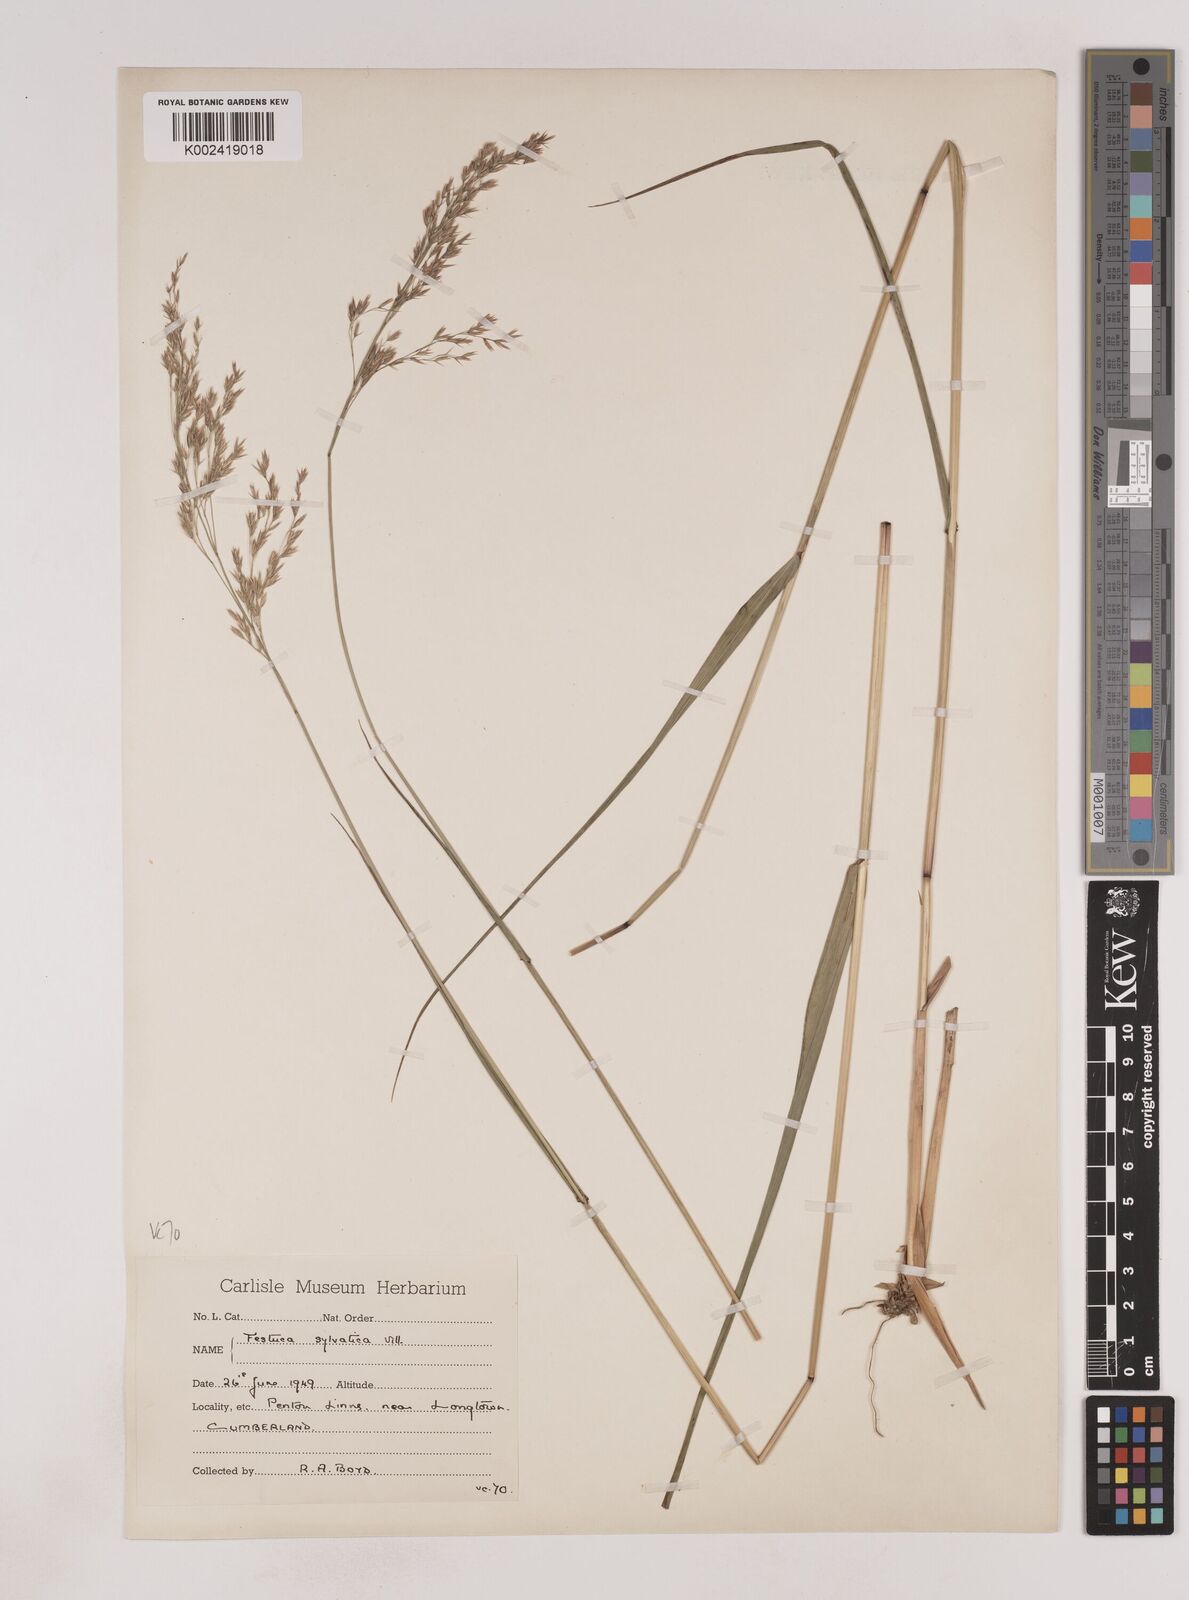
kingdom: Plantae
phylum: Tracheophyta
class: Liliopsida
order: Poales
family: Poaceae
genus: Festuca
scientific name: Festuca drymeja
